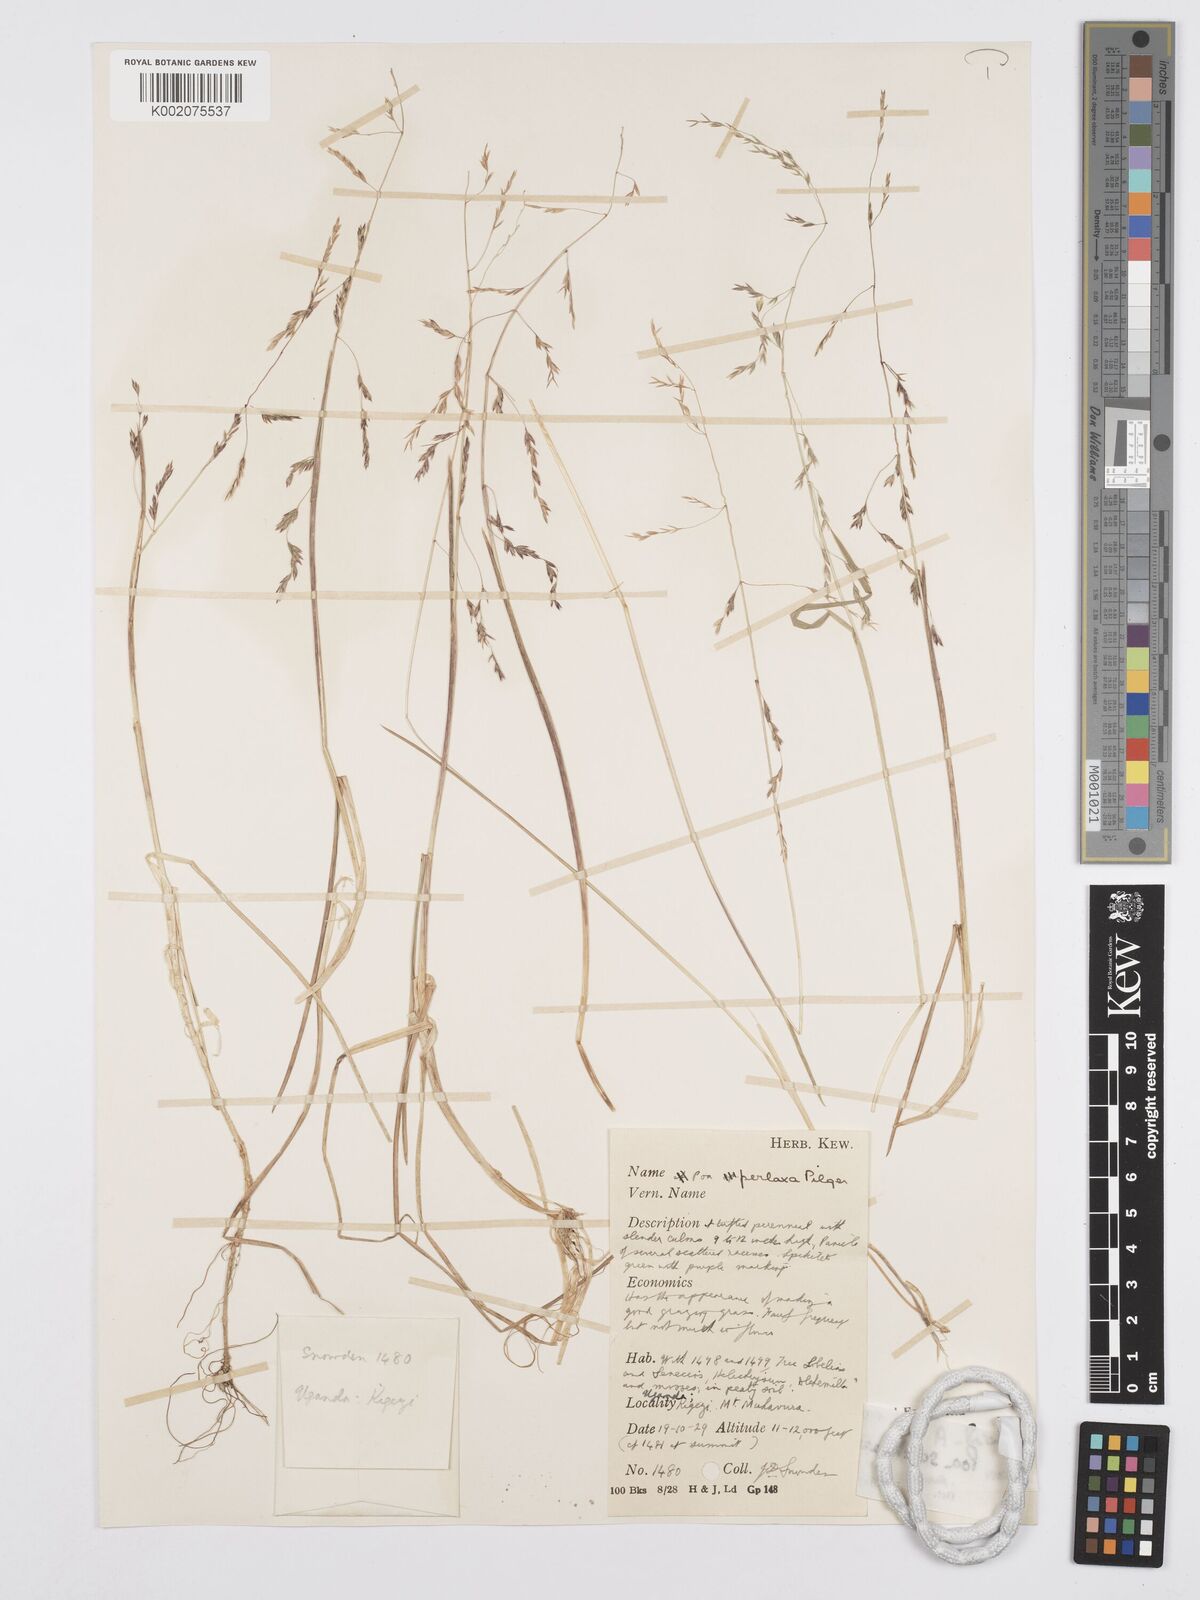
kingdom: Plantae
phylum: Tracheophyta
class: Liliopsida
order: Poales
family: Poaceae
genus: Poa
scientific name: Poa schimperiana
